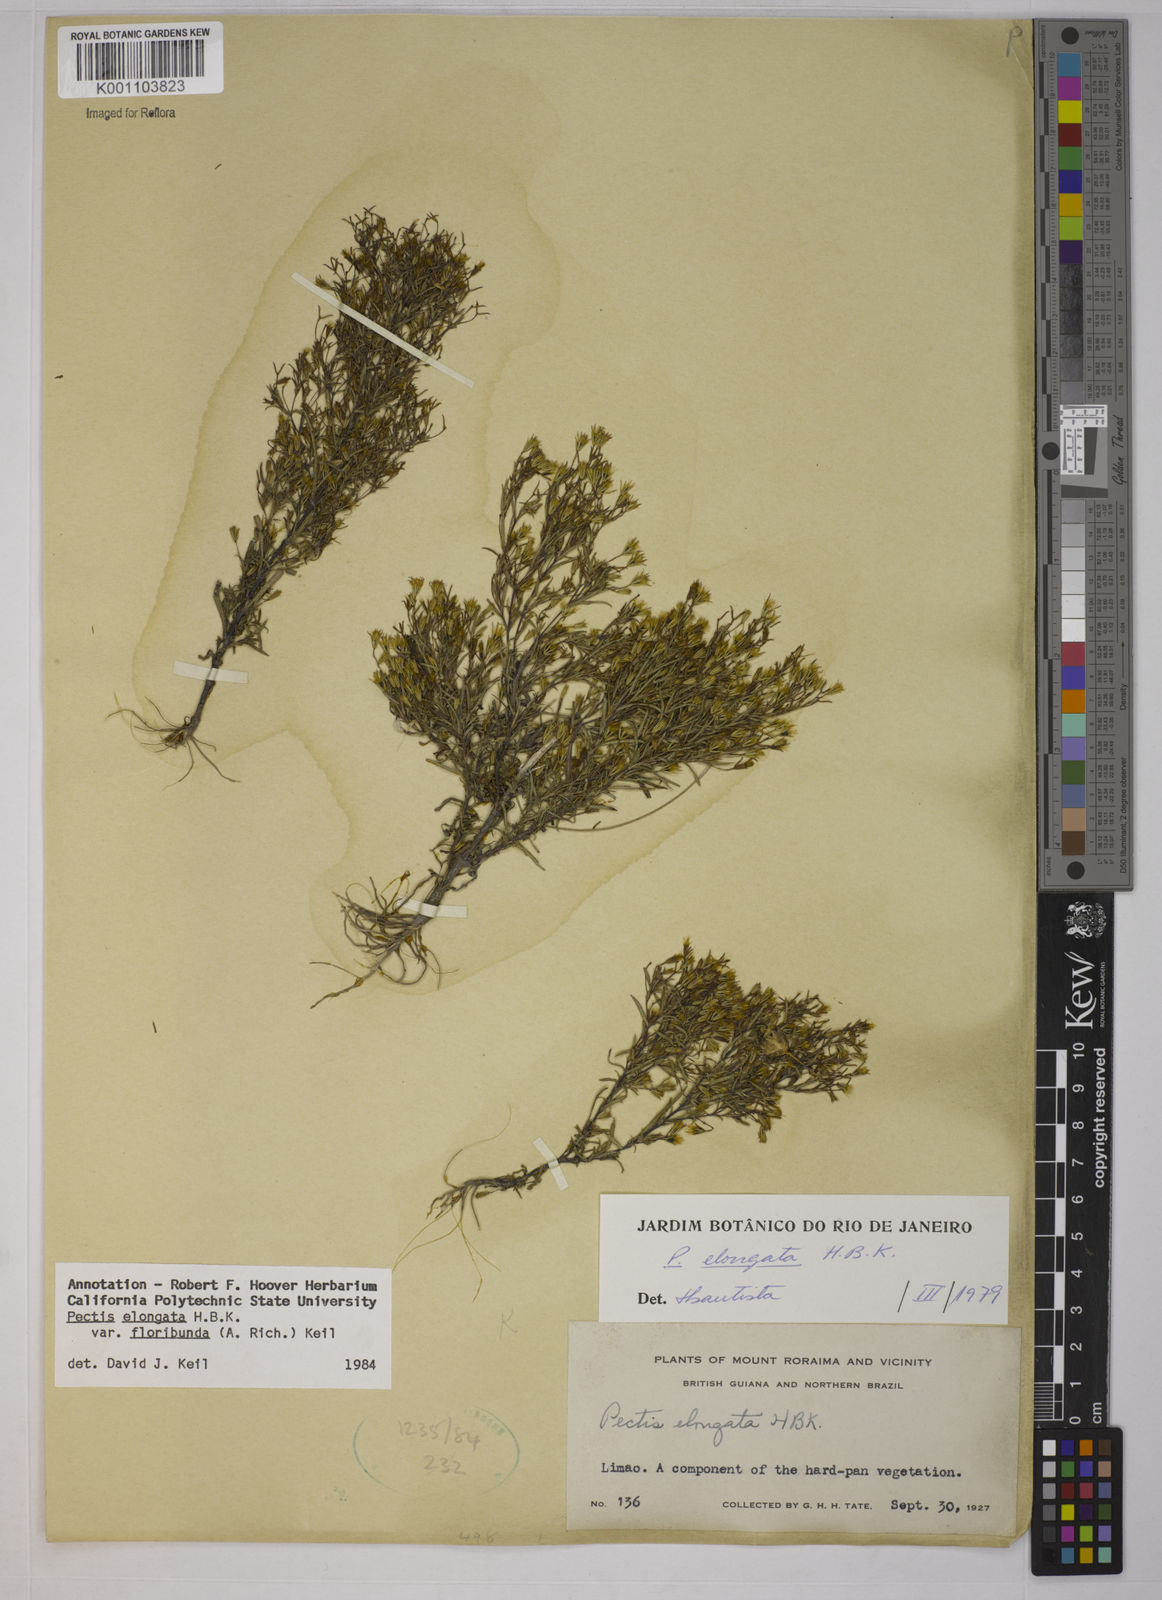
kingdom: Plantae
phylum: Tracheophyta
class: Magnoliopsida
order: Asterales
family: Asteraceae
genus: Pectis
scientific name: Pectis elongata
